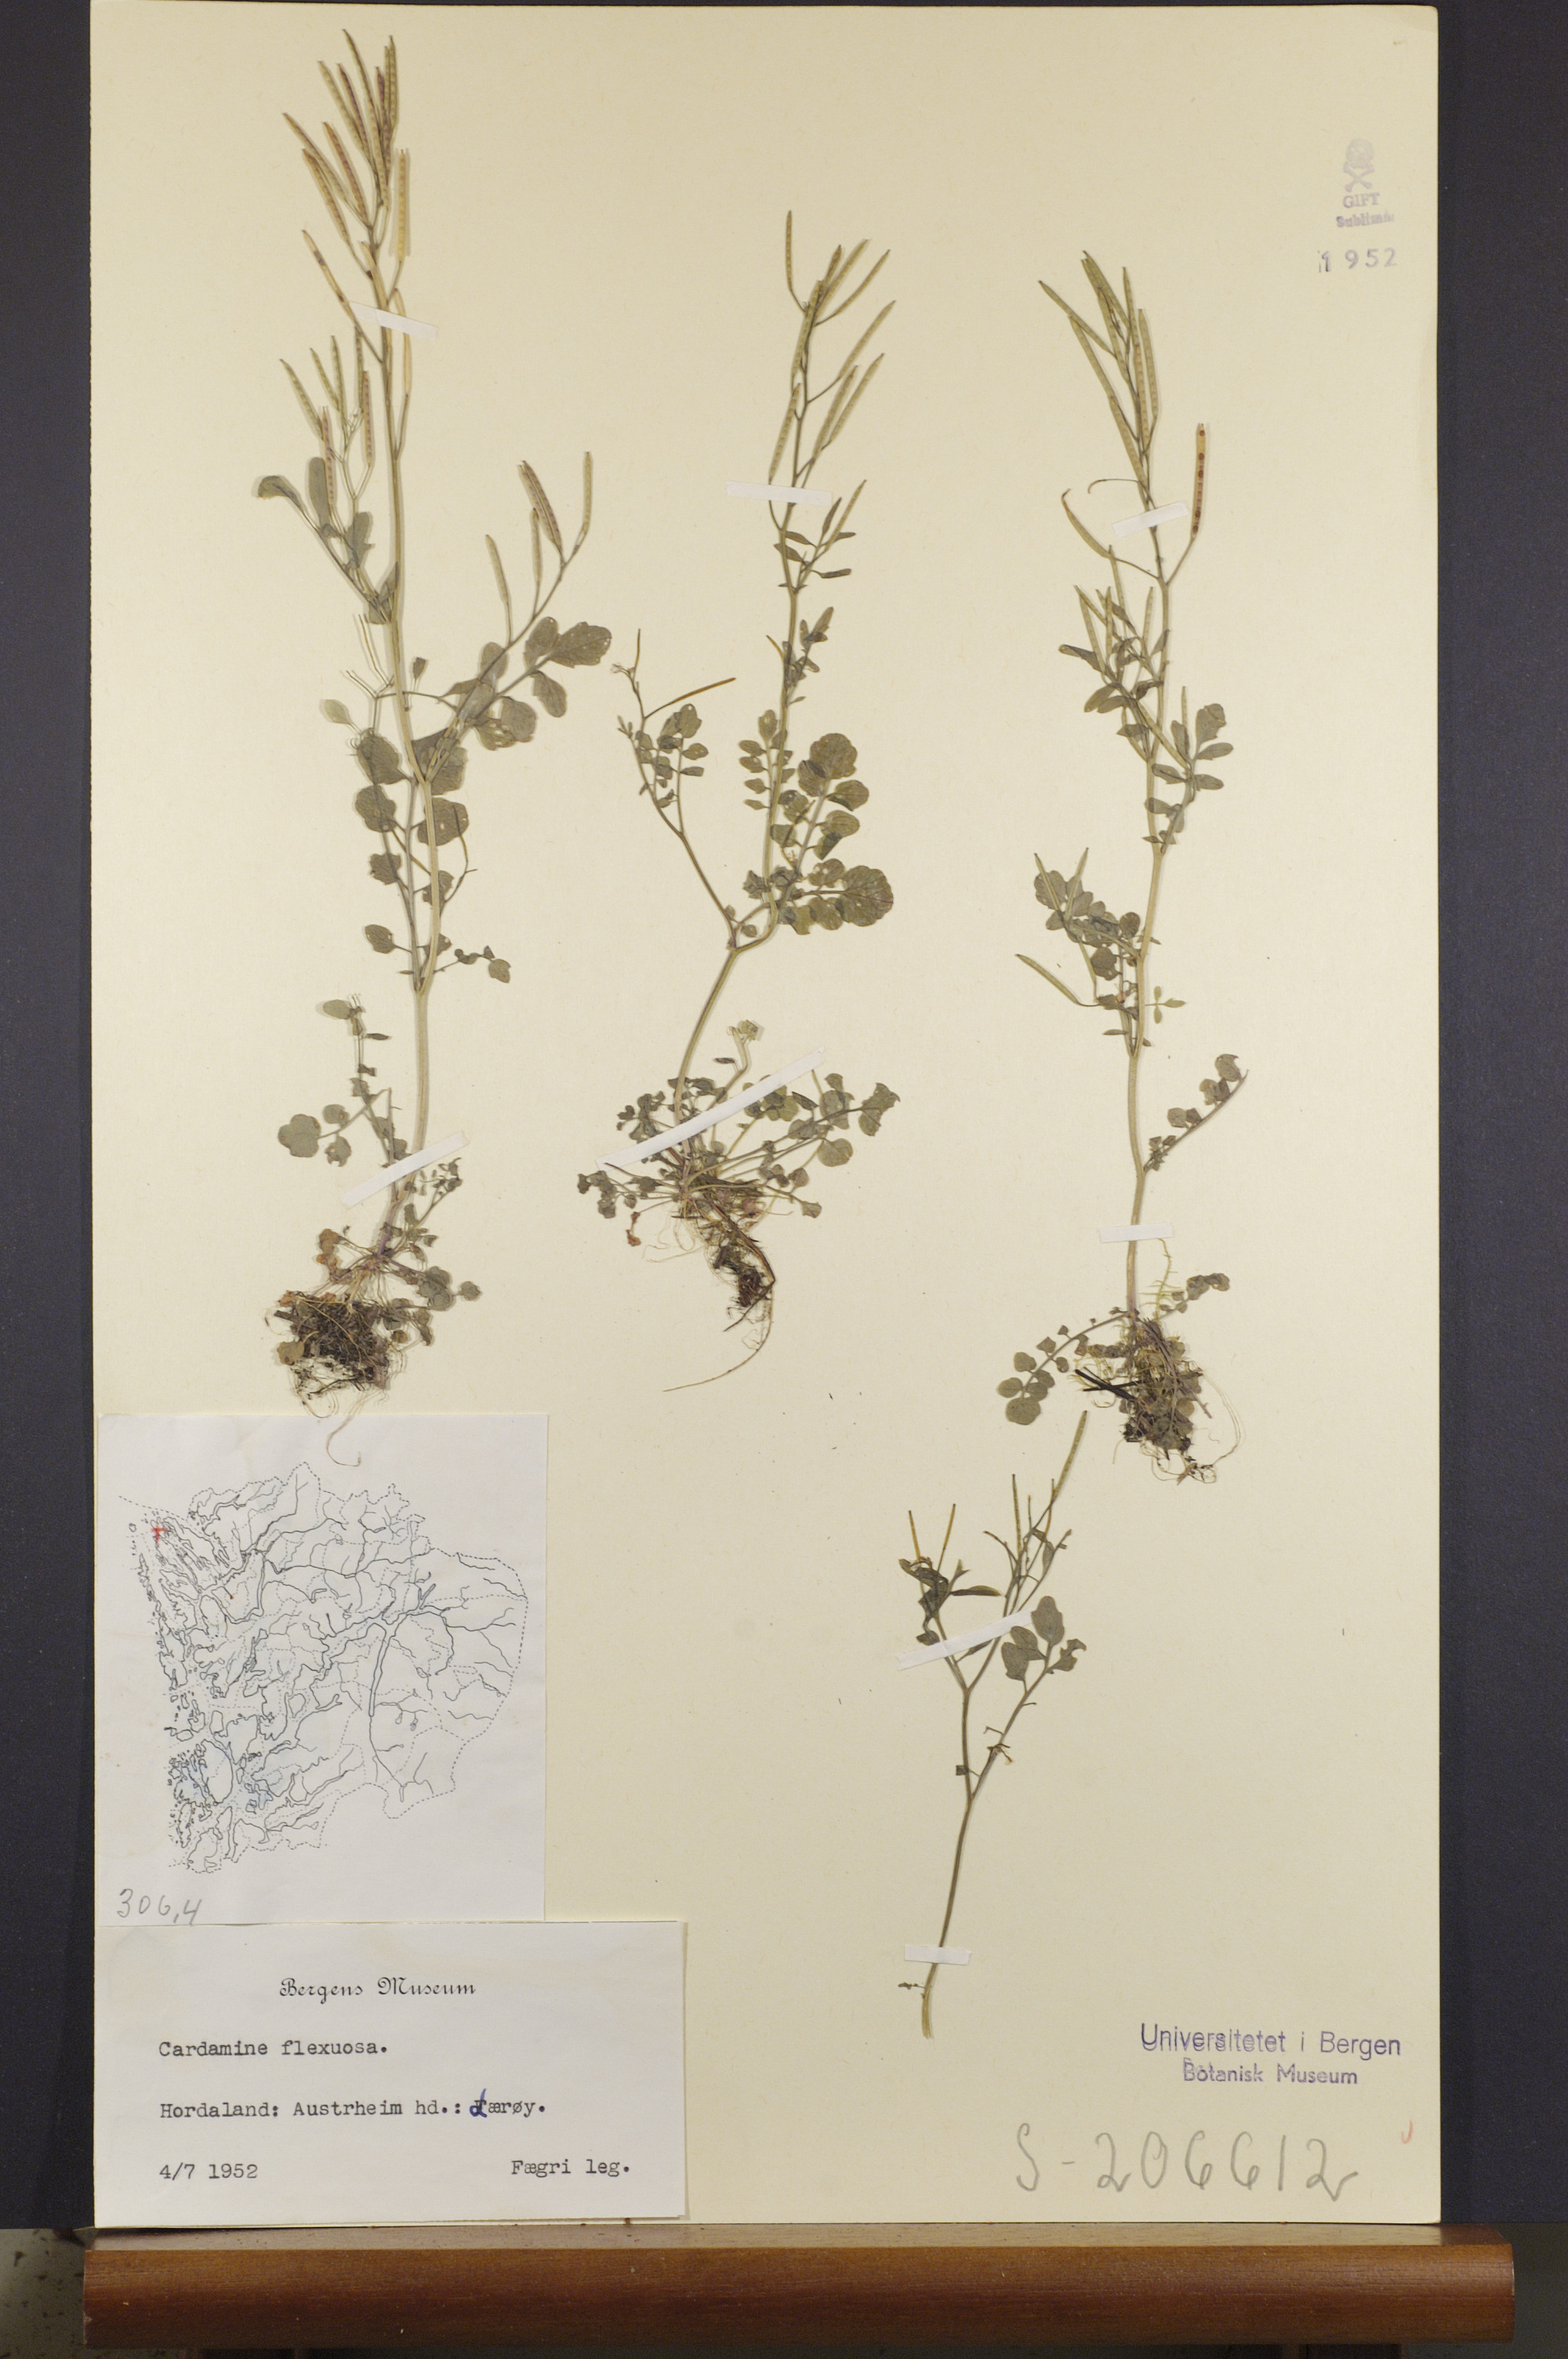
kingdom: Plantae
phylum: Tracheophyta
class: Magnoliopsida
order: Brassicales
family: Brassicaceae
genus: Cardamine
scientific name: Cardamine flexuosa
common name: Woodland bittercress
